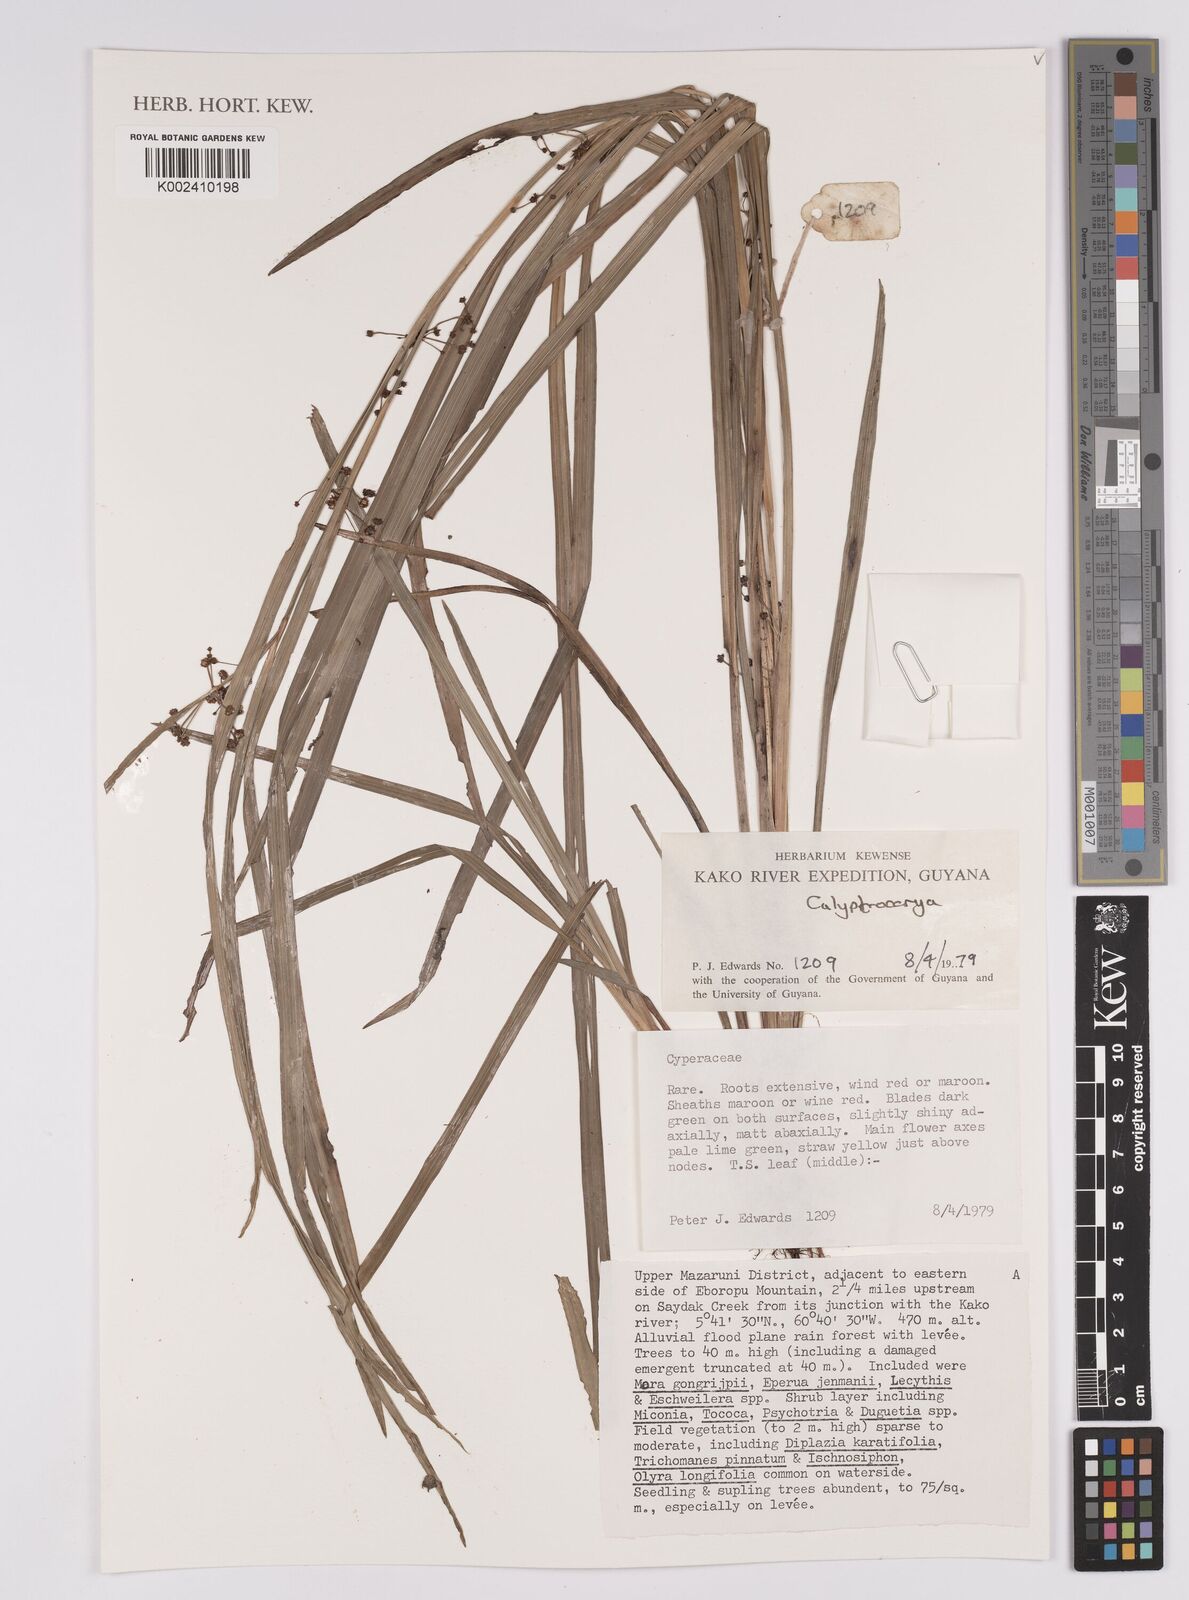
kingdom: Plantae
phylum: Tracheophyta
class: Liliopsida
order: Poales
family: Cyperaceae
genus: Calyptrocarya
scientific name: Calyptrocarya
